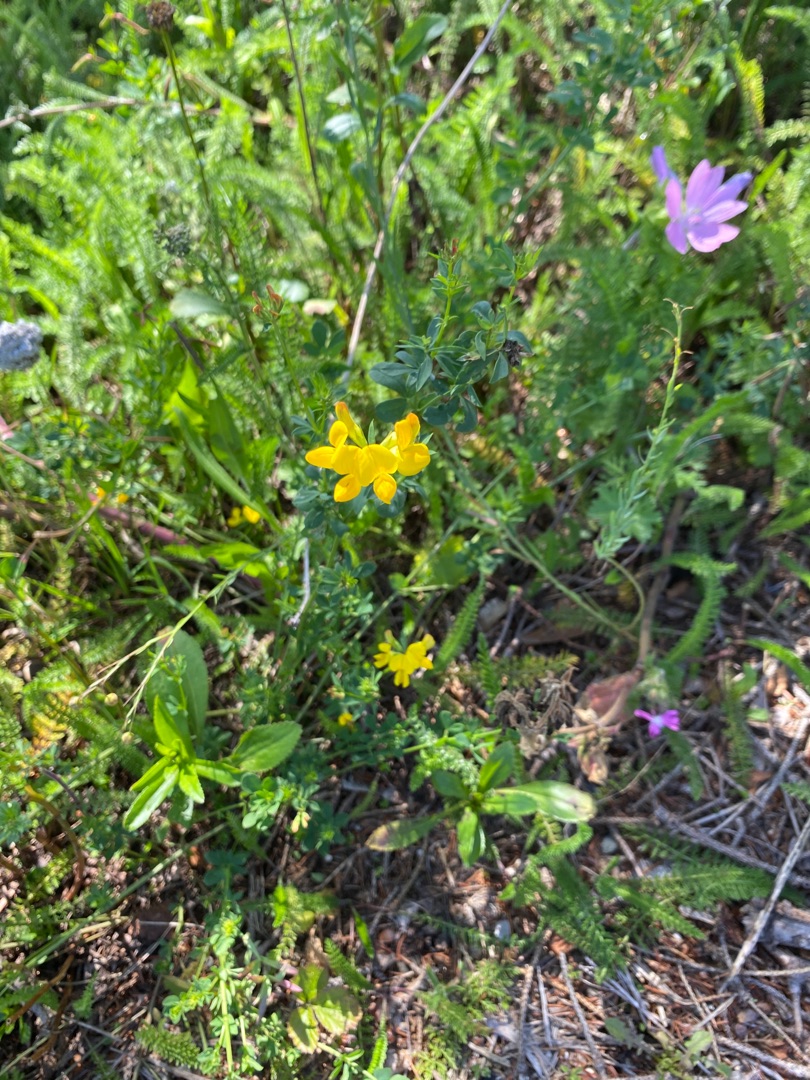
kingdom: Plantae
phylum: Tracheophyta
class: Magnoliopsida
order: Fabales
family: Fabaceae
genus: Lotus
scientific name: Lotus corniculatus
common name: Almindelig kællingetand
